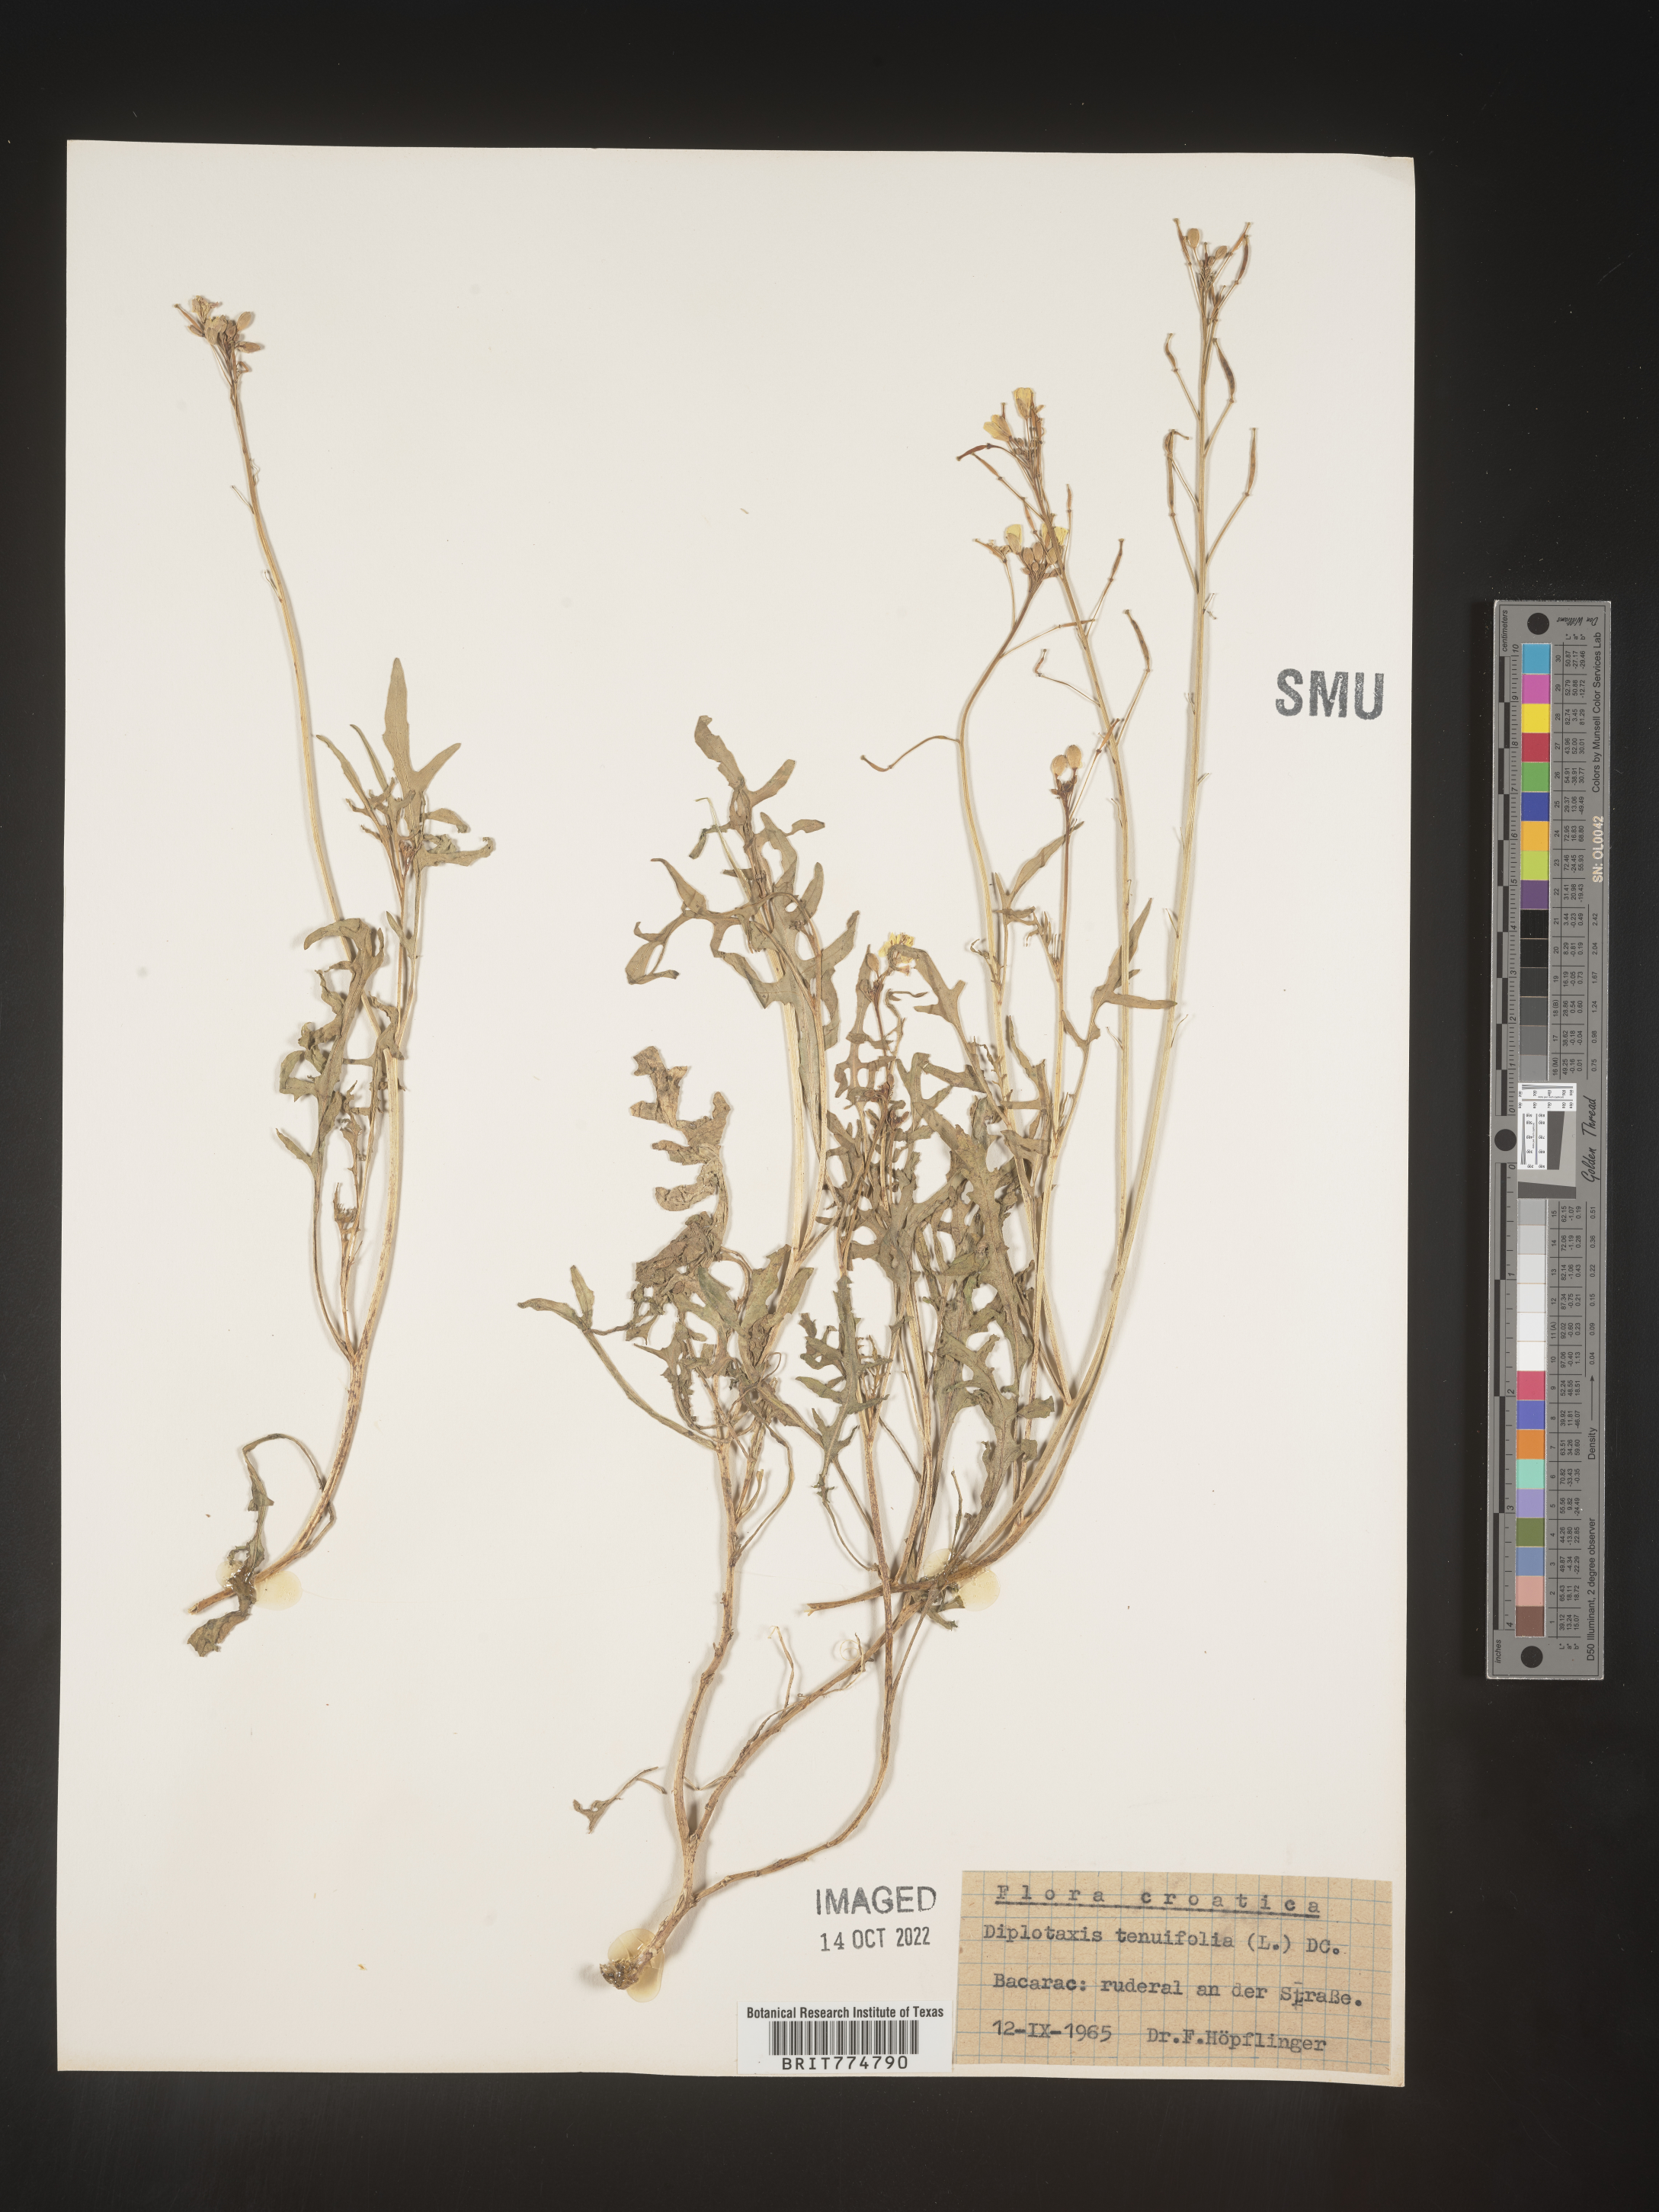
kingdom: Plantae
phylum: Tracheophyta
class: Magnoliopsida
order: Brassicales
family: Brassicaceae
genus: Diplotaxis
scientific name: Diplotaxis
